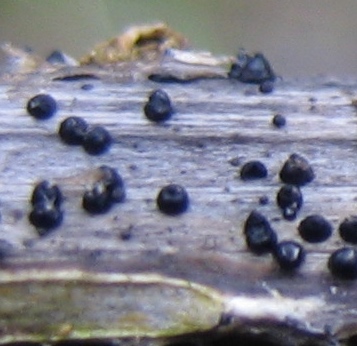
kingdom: Fungi
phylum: Ascomycota
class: Dothideomycetes
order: Pleosporales
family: Leptosphaeriaceae
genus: Leptosphaeria
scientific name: Leptosphaeria
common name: kulkegle
